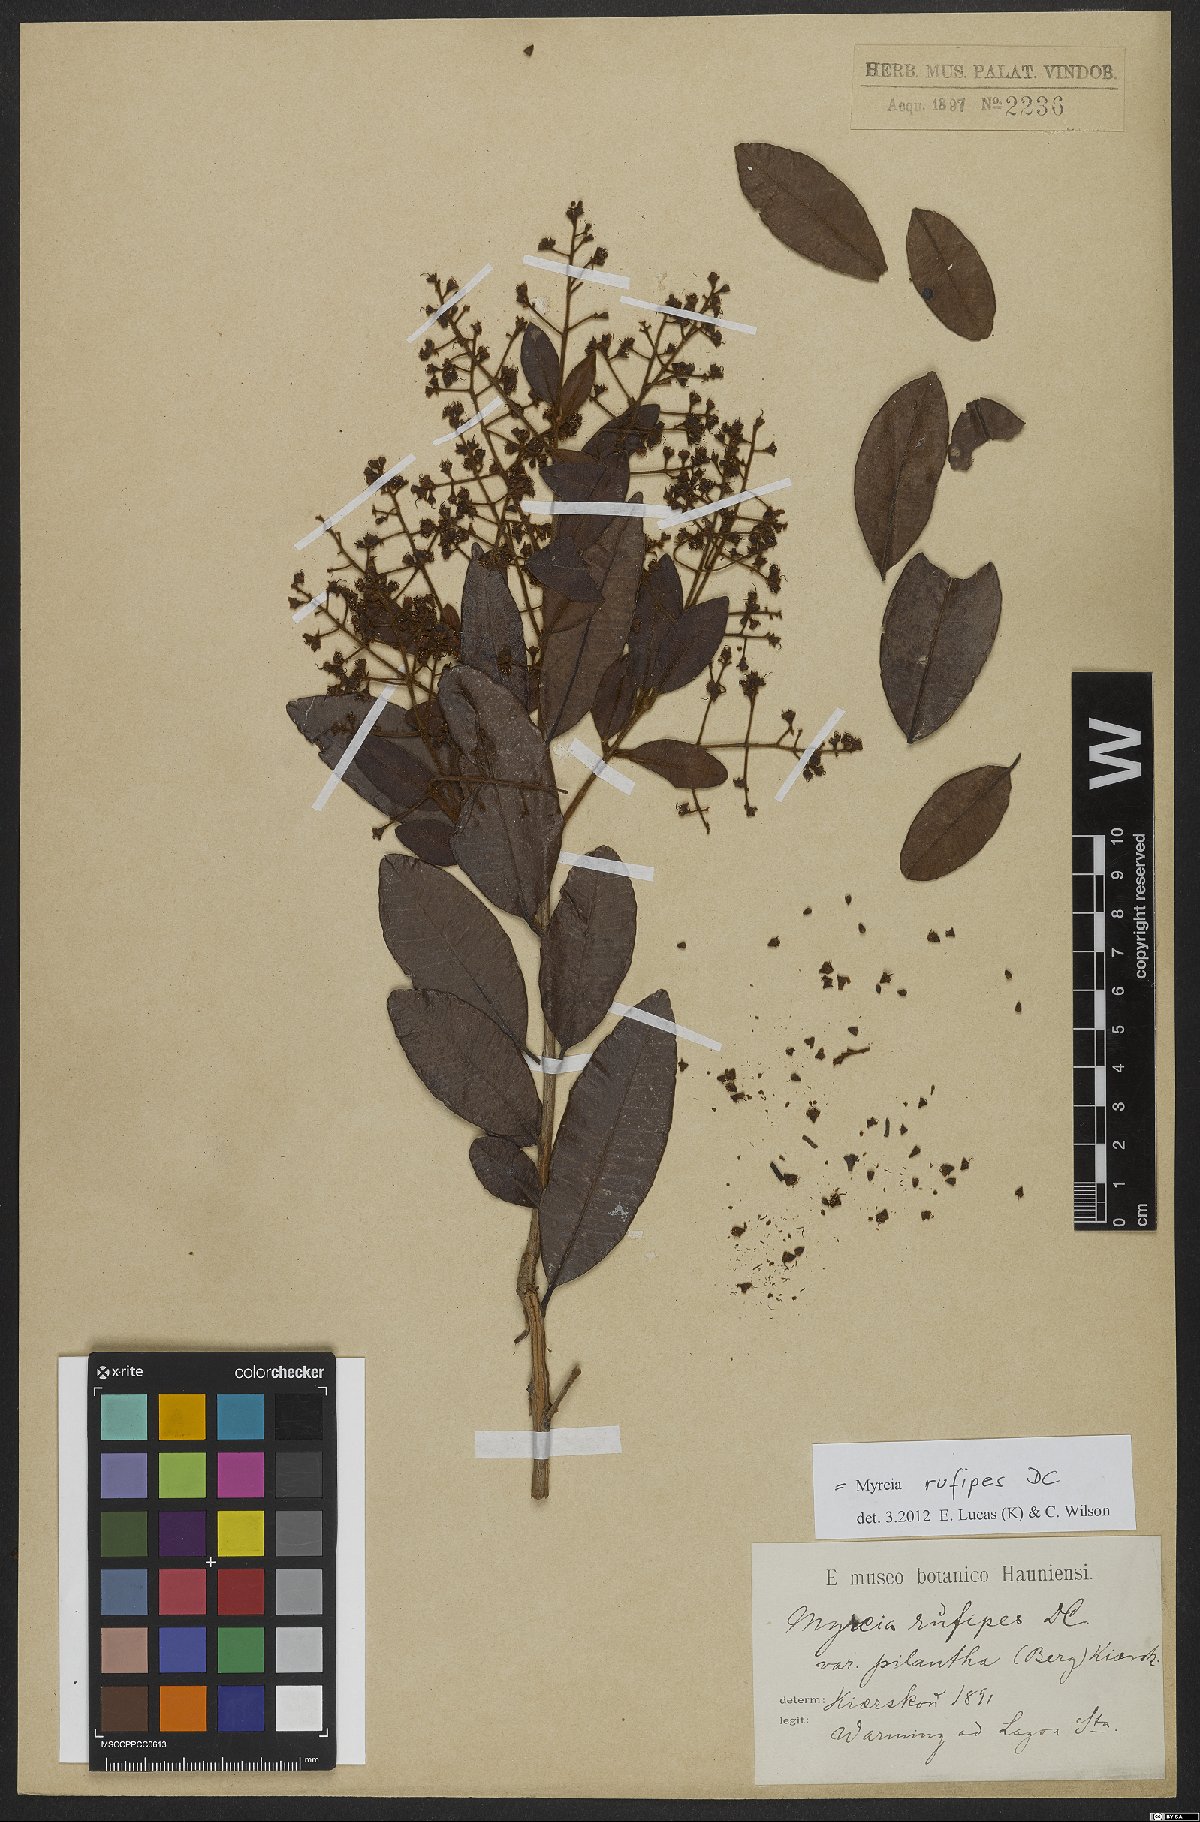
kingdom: Plantae
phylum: Tracheophyta
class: Magnoliopsida
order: Myrtales
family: Myrtaceae
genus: Myrcia
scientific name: Myrcia rufipes
